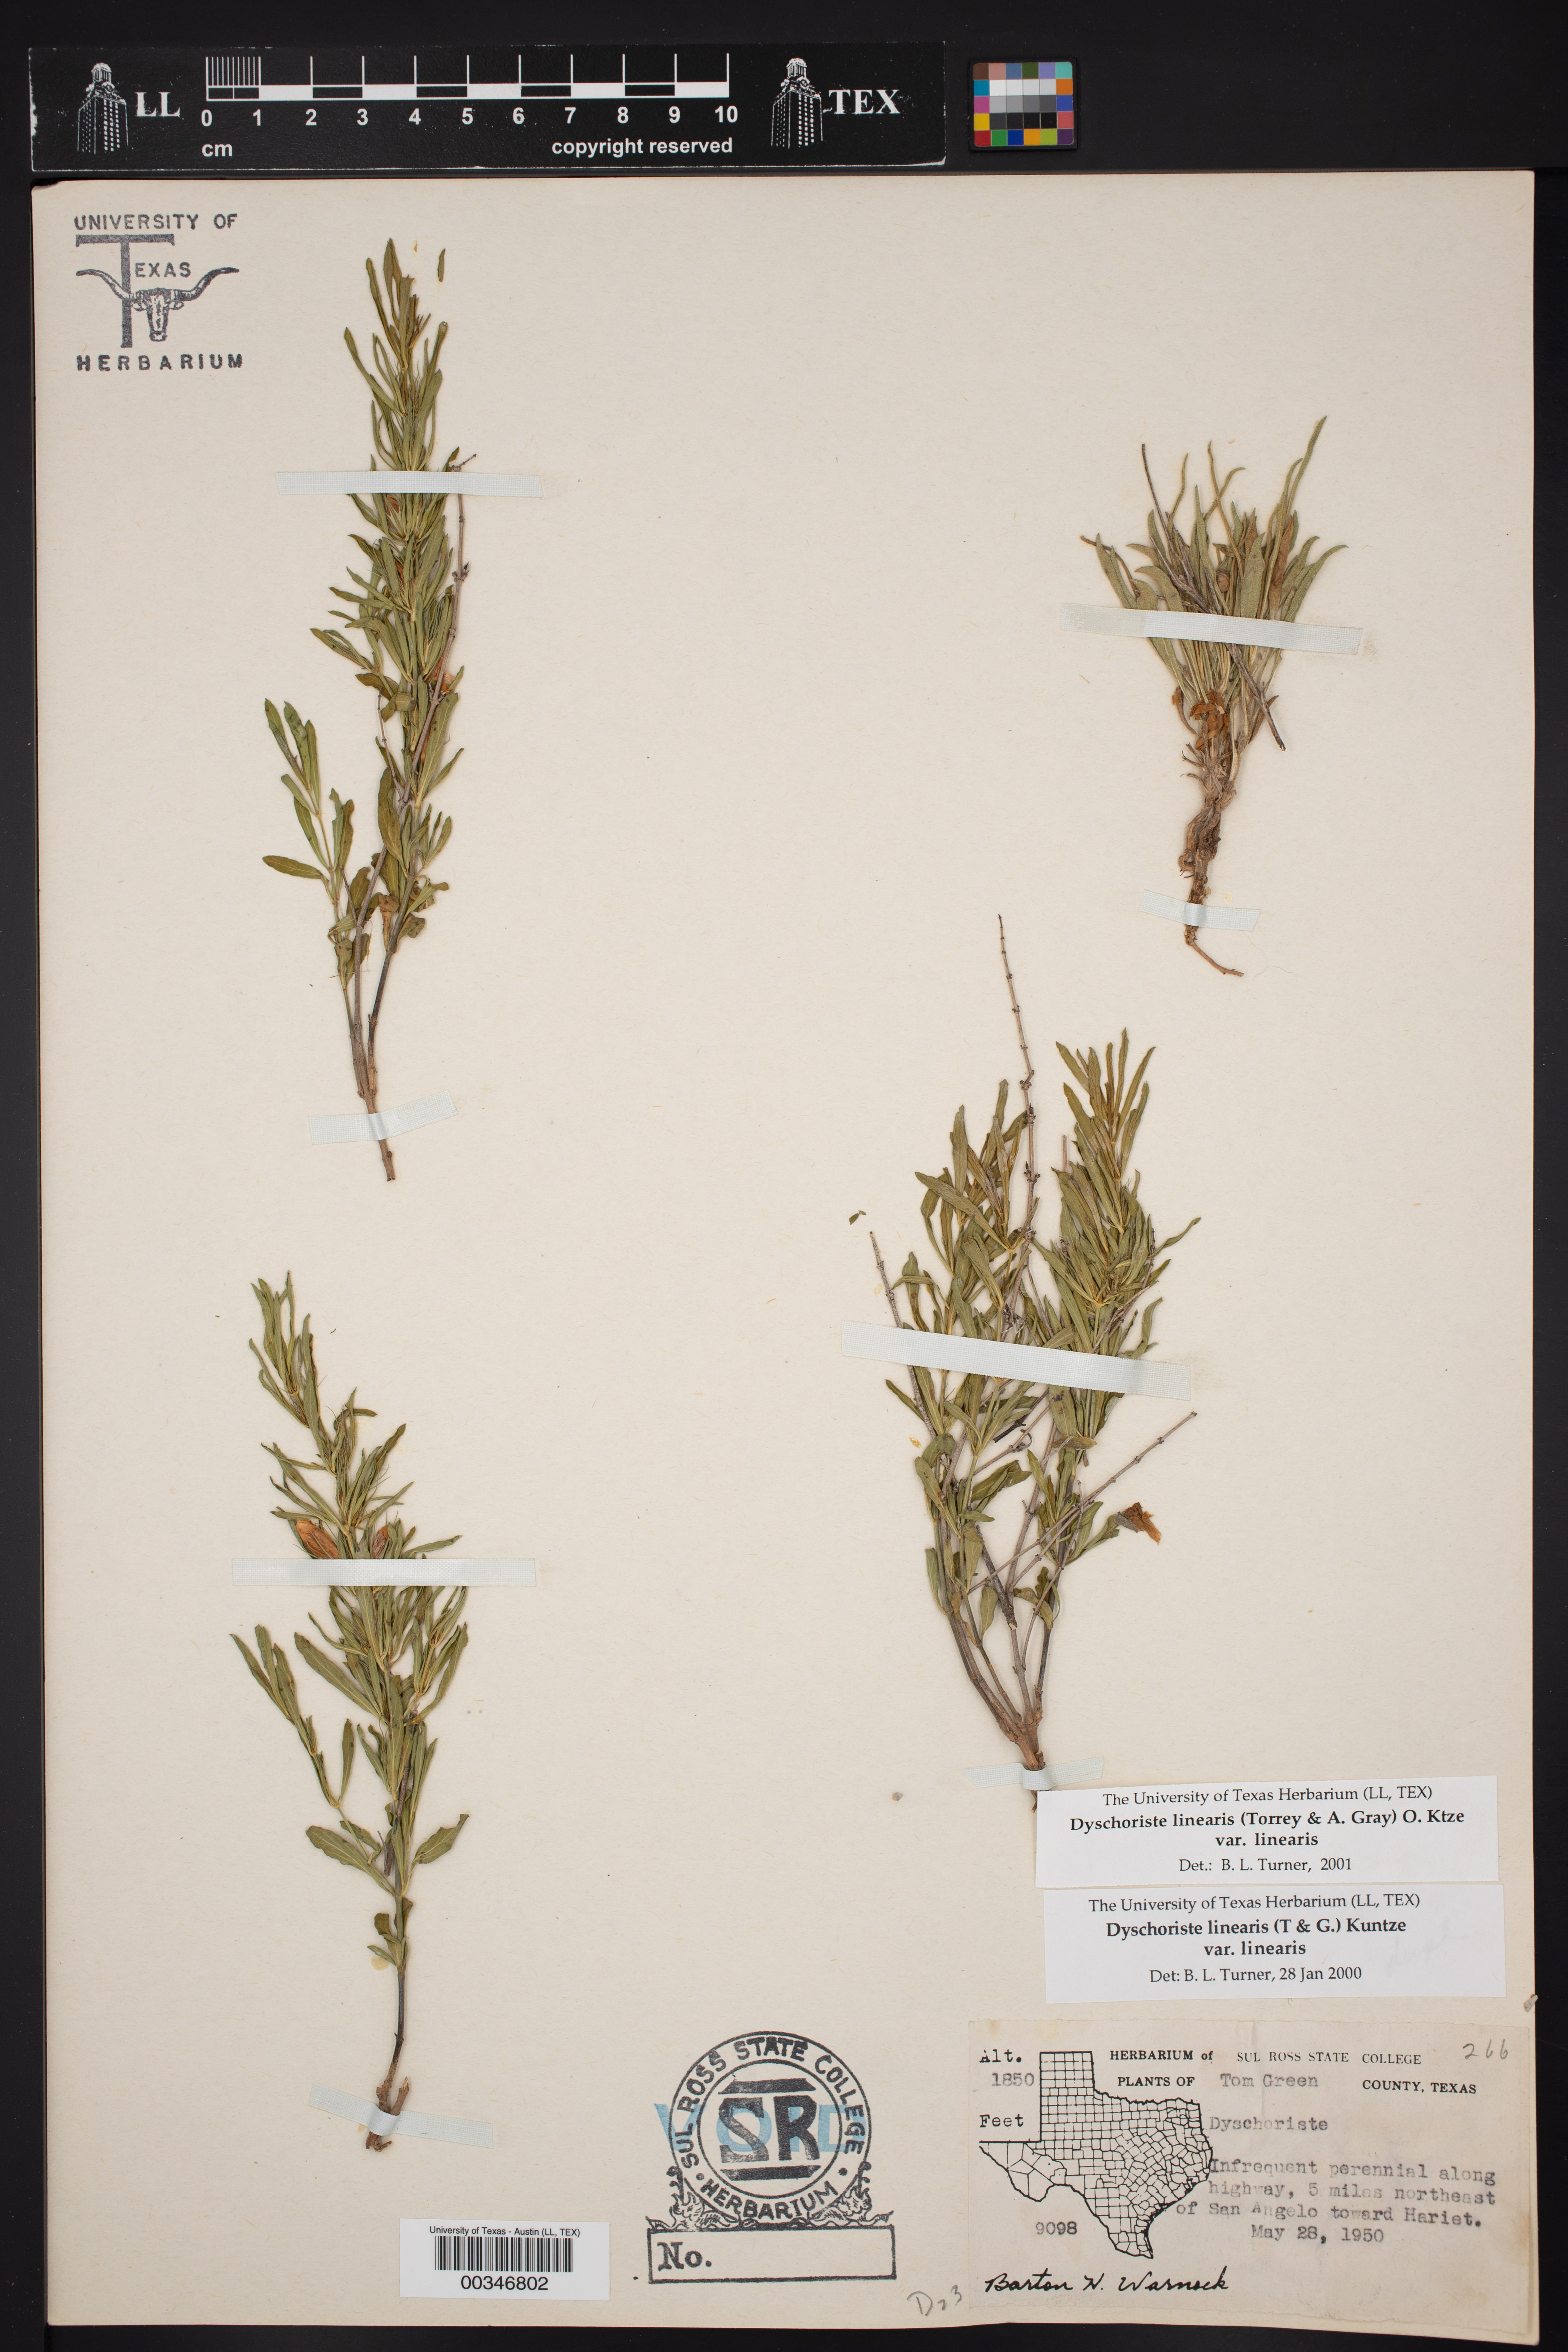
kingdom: Plantae
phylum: Tracheophyta
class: Magnoliopsida
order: Lamiales
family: Acanthaceae
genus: Dyschoriste
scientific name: Dyschoriste linearis
